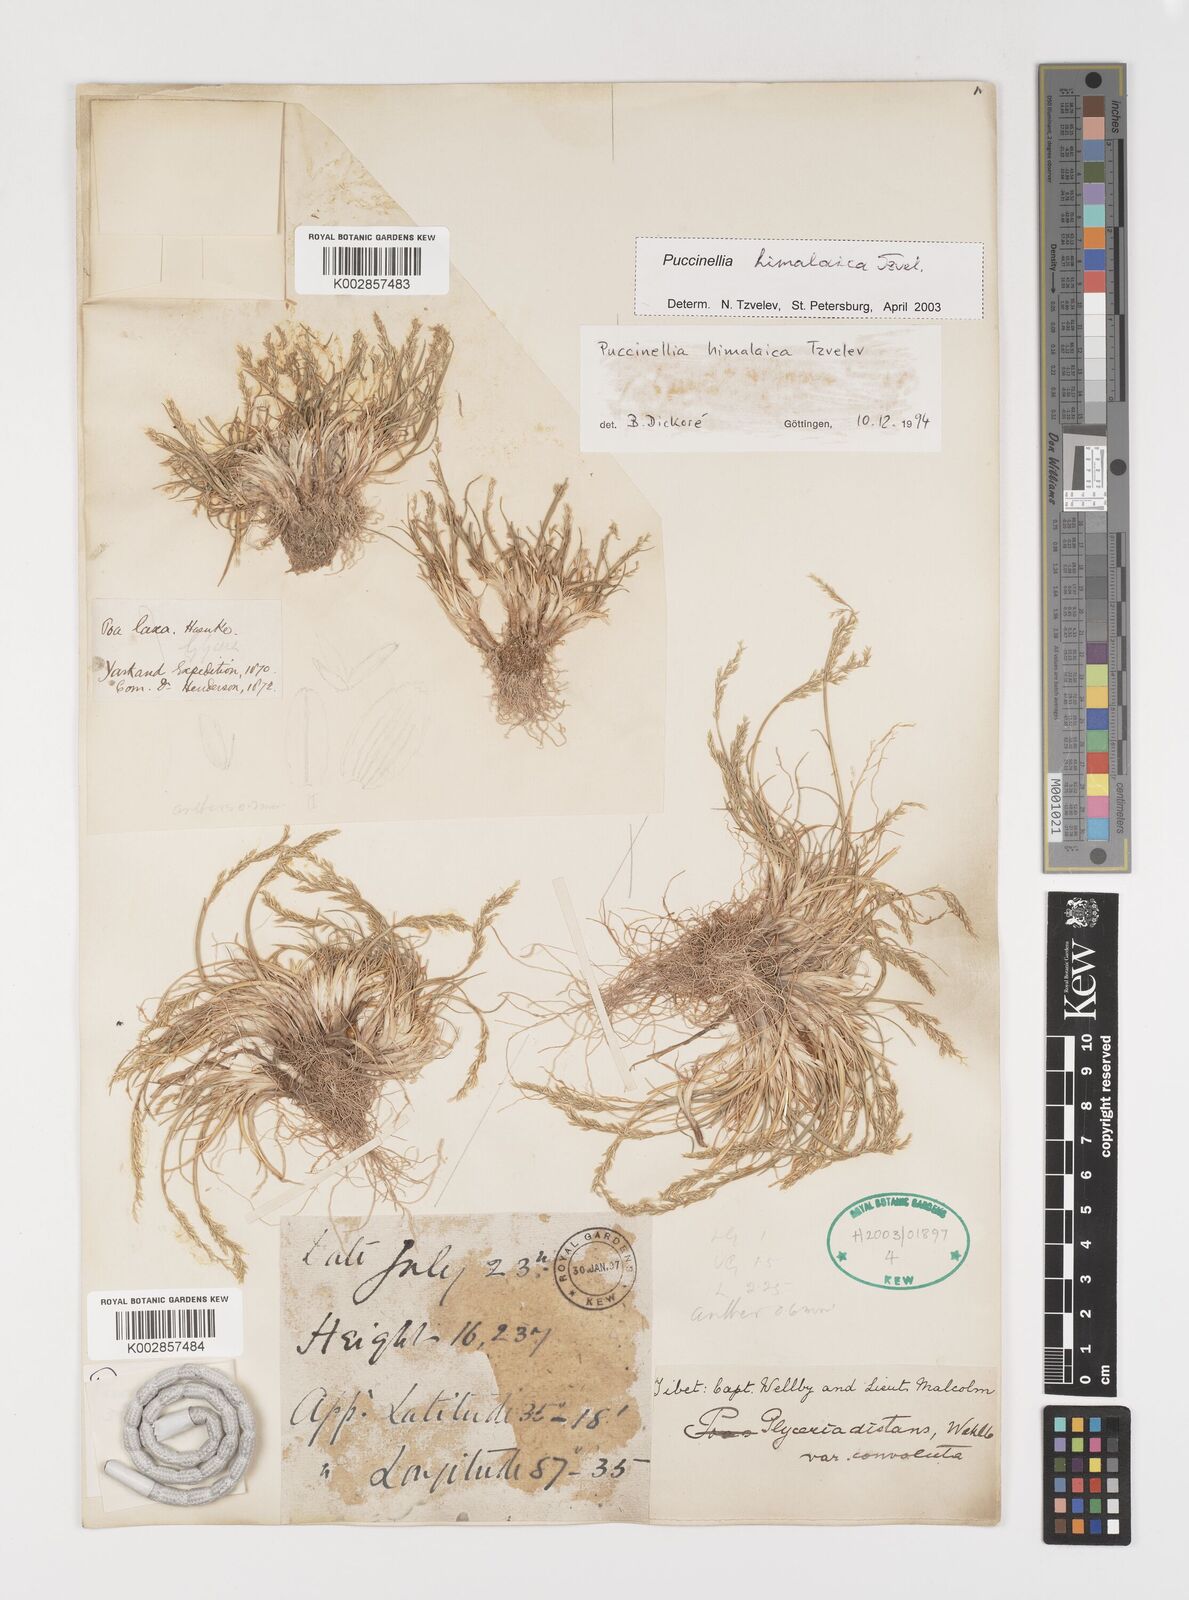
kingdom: Plantae
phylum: Tracheophyta
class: Liliopsida
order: Poales
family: Poaceae
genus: Puccinellia
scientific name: Puccinellia himalaica
